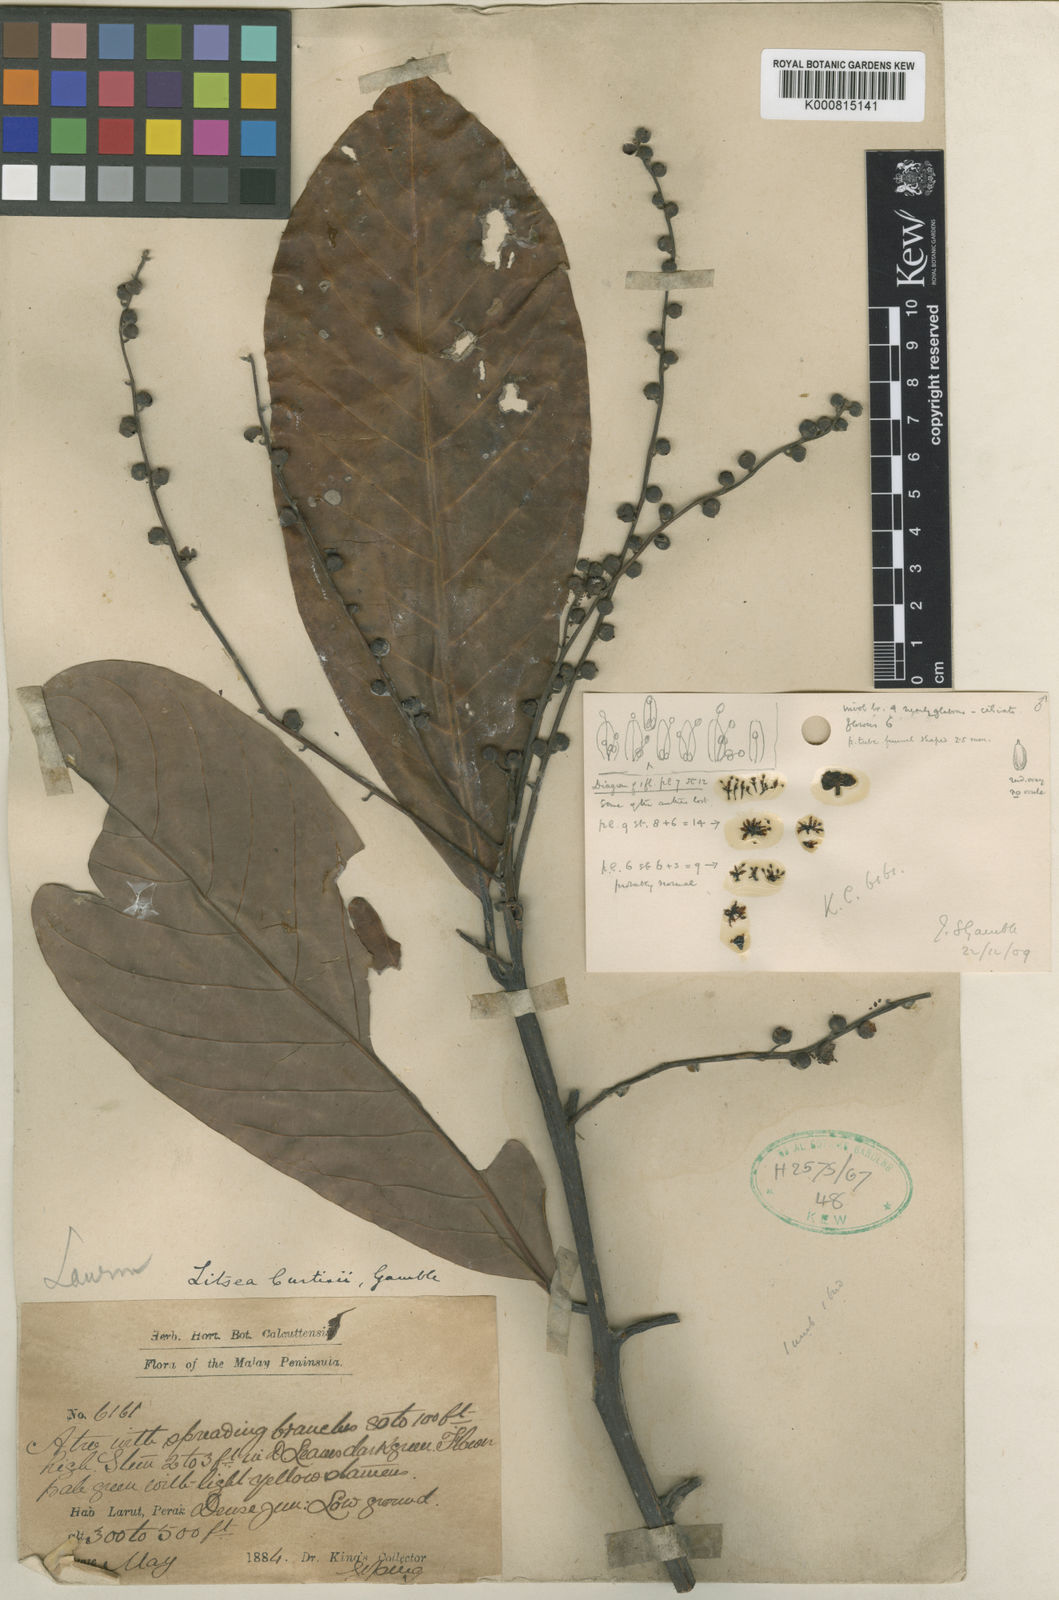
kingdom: Plantae
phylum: Tracheophyta
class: Magnoliopsida
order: Laurales
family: Lauraceae
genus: Litsea
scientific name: Litsea curtisii
